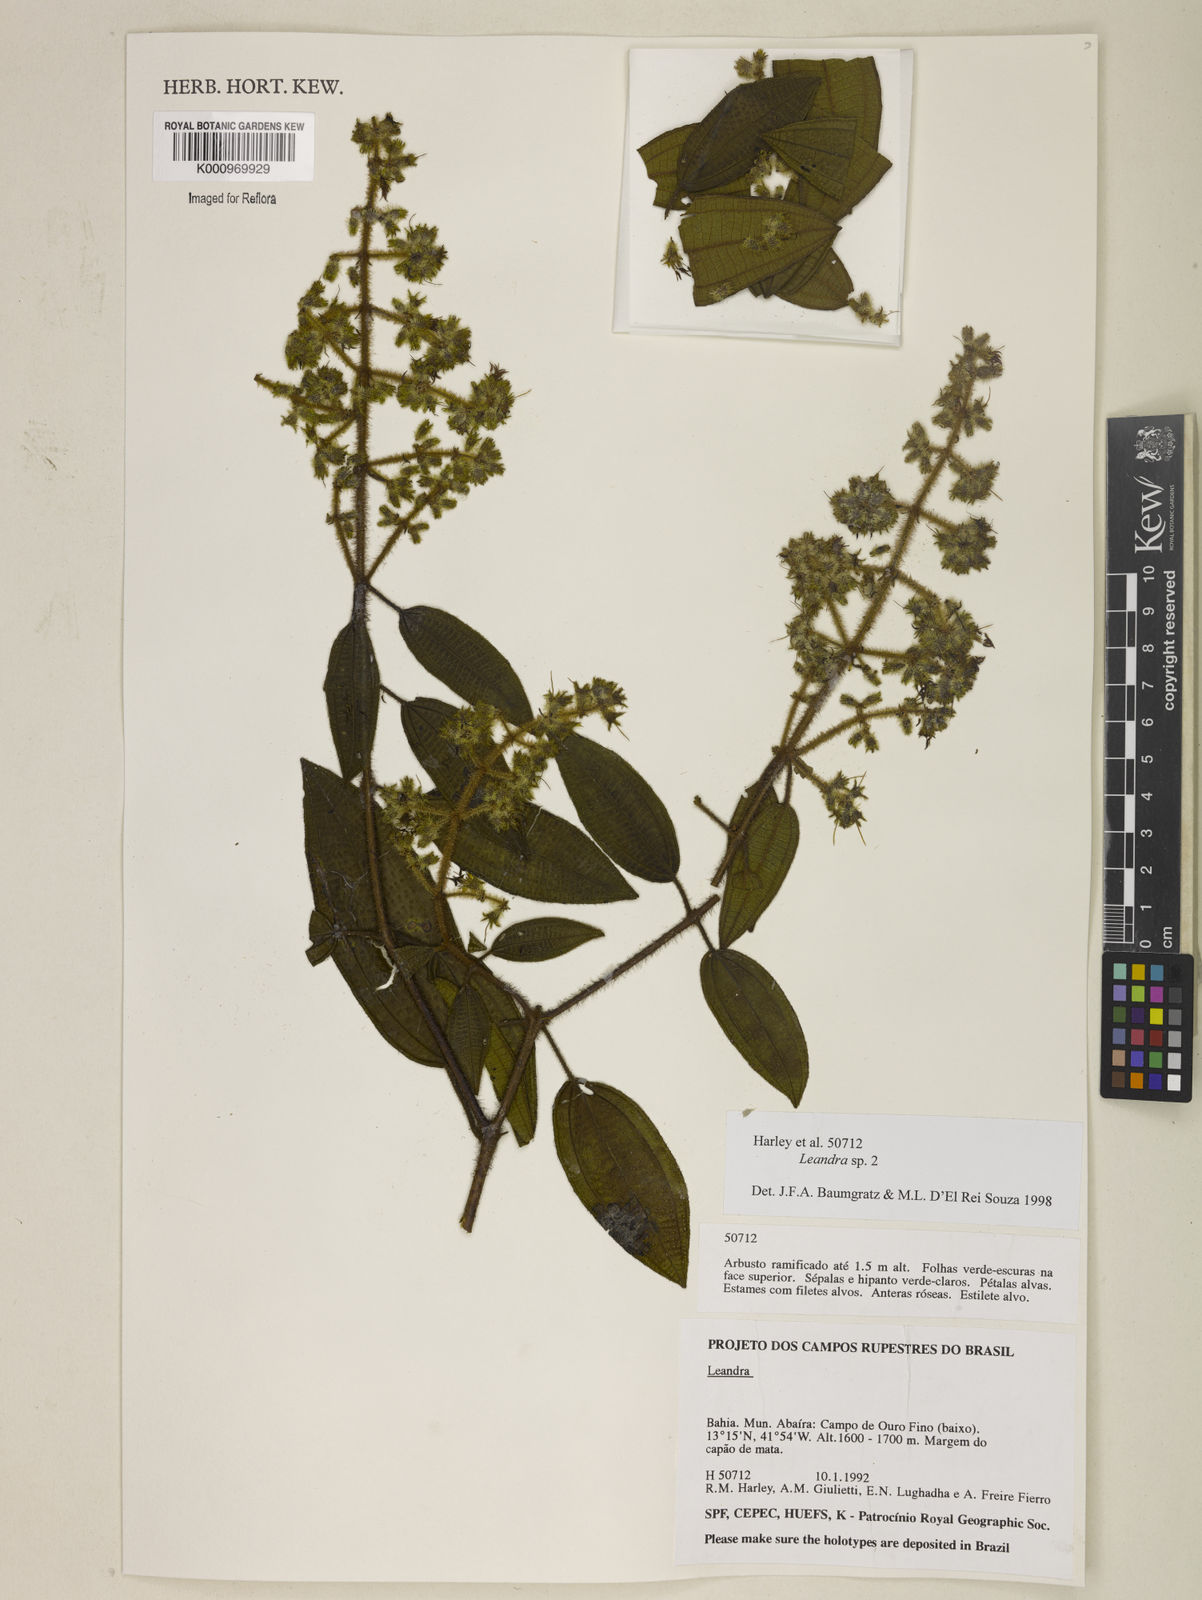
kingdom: Plantae
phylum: Tracheophyta
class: Magnoliopsida
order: Myrtales
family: Melastomataceae
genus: Miconia
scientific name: Miconia
